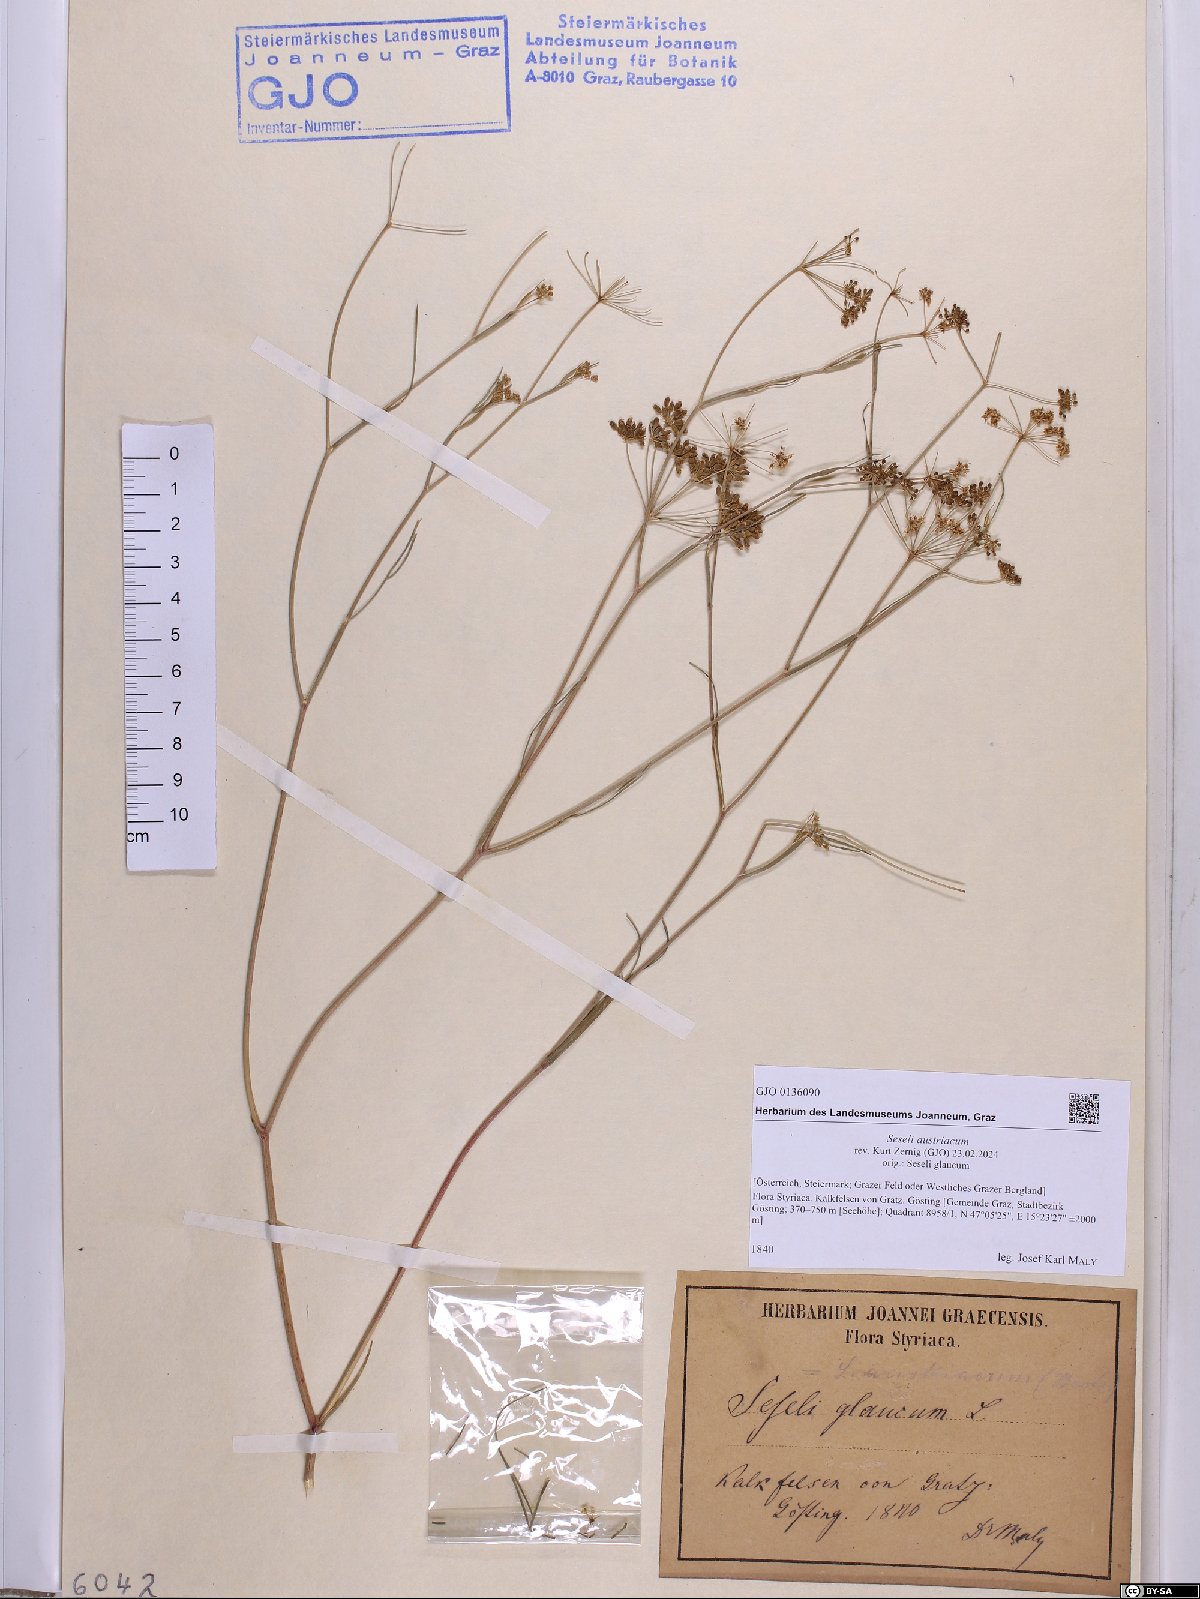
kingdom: Plantae
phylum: Tracheophyta
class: Magnoliopsida
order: Apiales
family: Apiaceae
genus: Seseli
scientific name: Seseli austriacum
